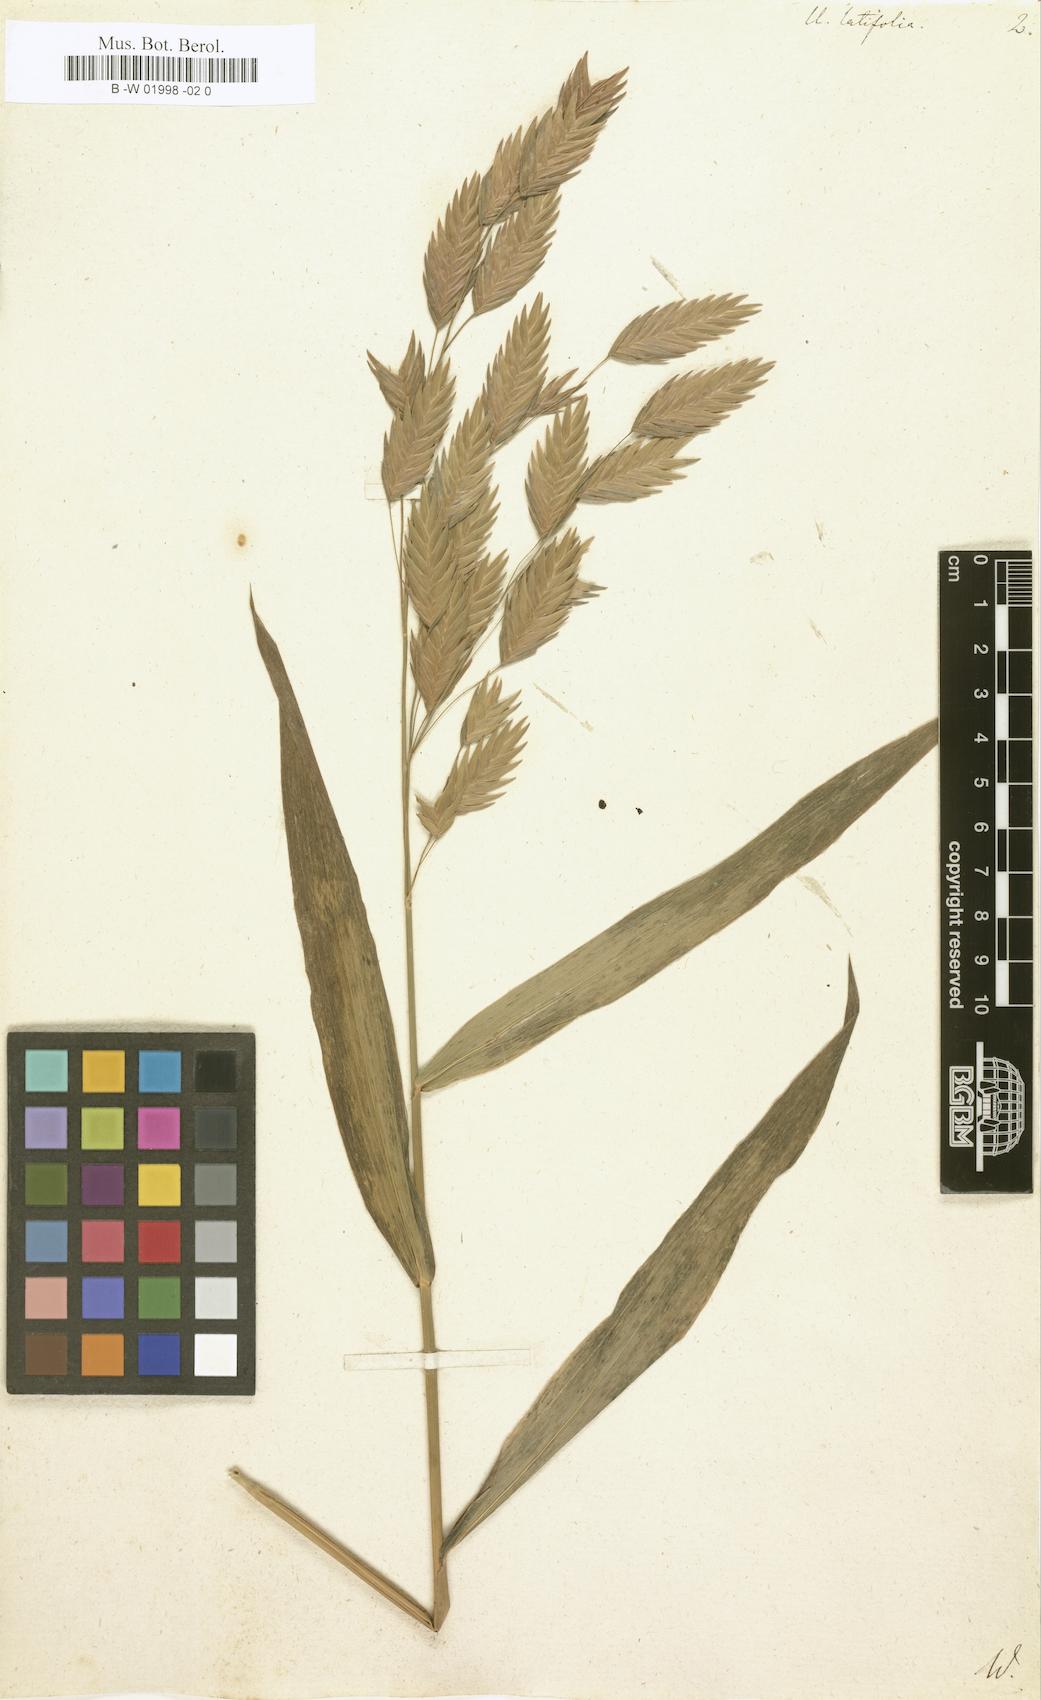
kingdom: Plantae
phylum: Tracheophyta
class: Liliopsida
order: Poales
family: Poaceae
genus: Chasmanthium
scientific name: Chasmanthium latifolium
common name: Broad-leaved chasmanthium
